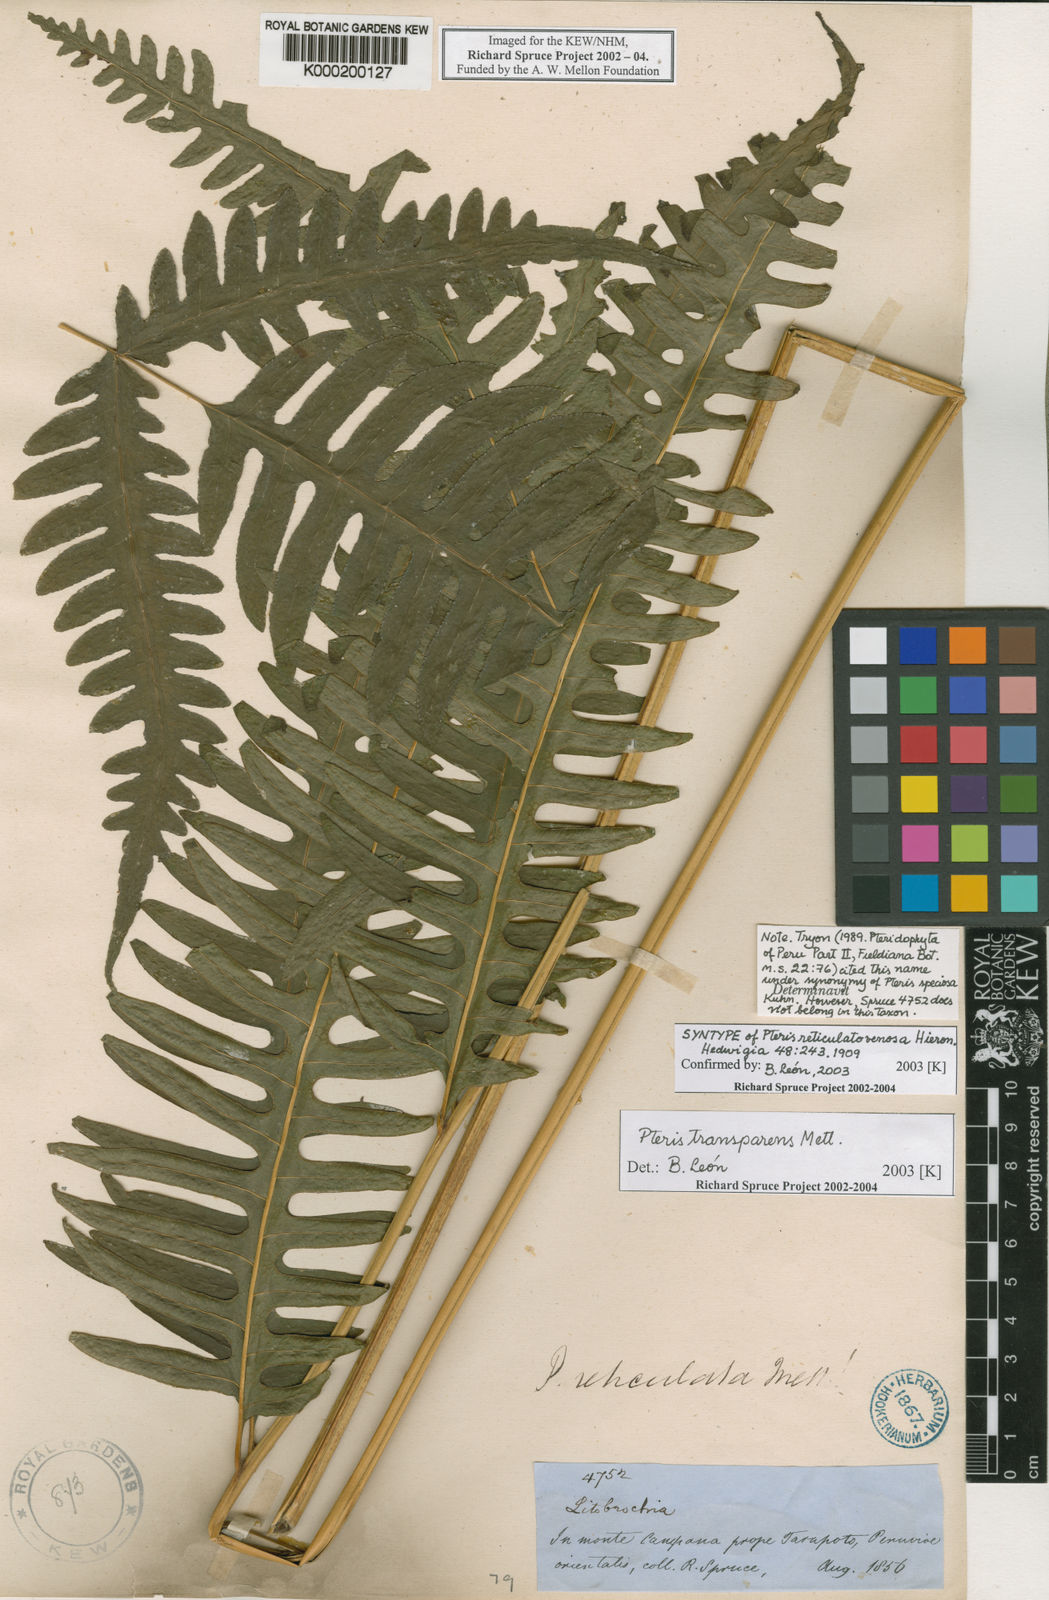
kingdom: Plantae
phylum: Tracheophyta
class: Polypodiopsida
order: Polypodiales
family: Pteridaceae
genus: Pteris
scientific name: Pteris transparens
